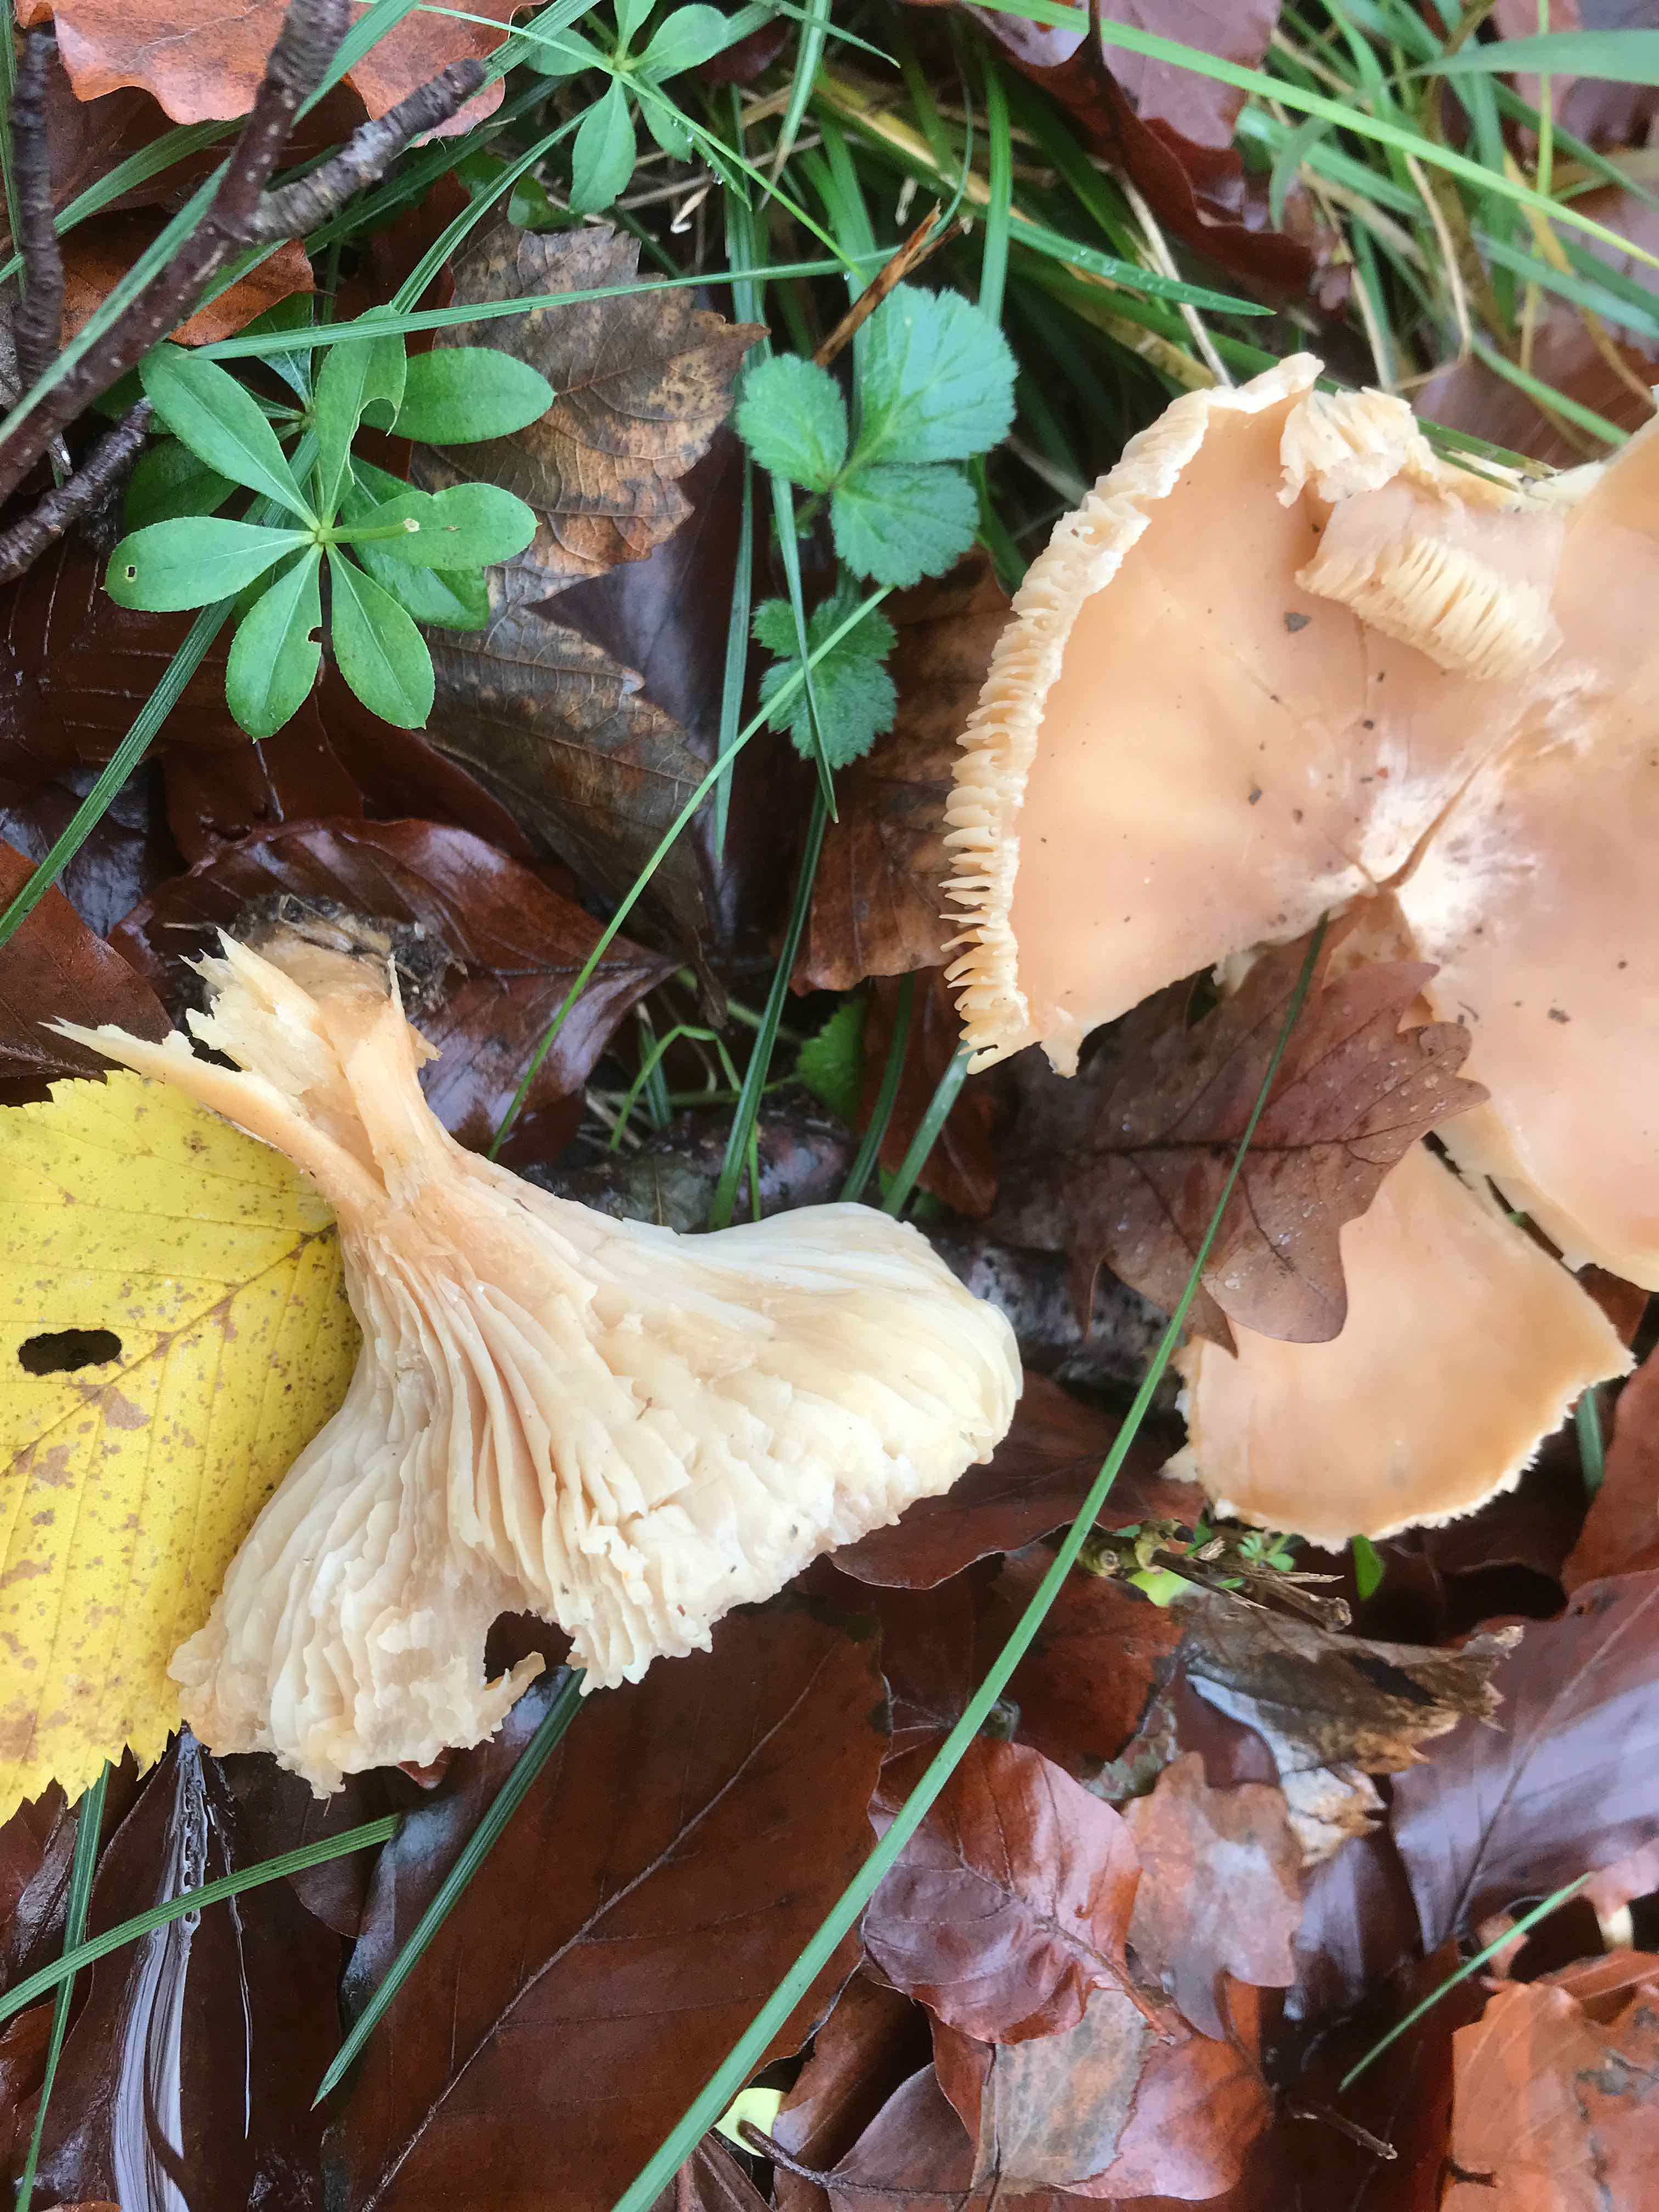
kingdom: Fungi
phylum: Basidiomycota
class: Agaricomycetes
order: Agaricales
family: Tricholomataceae
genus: Clitocybe
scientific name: Clitocybe
